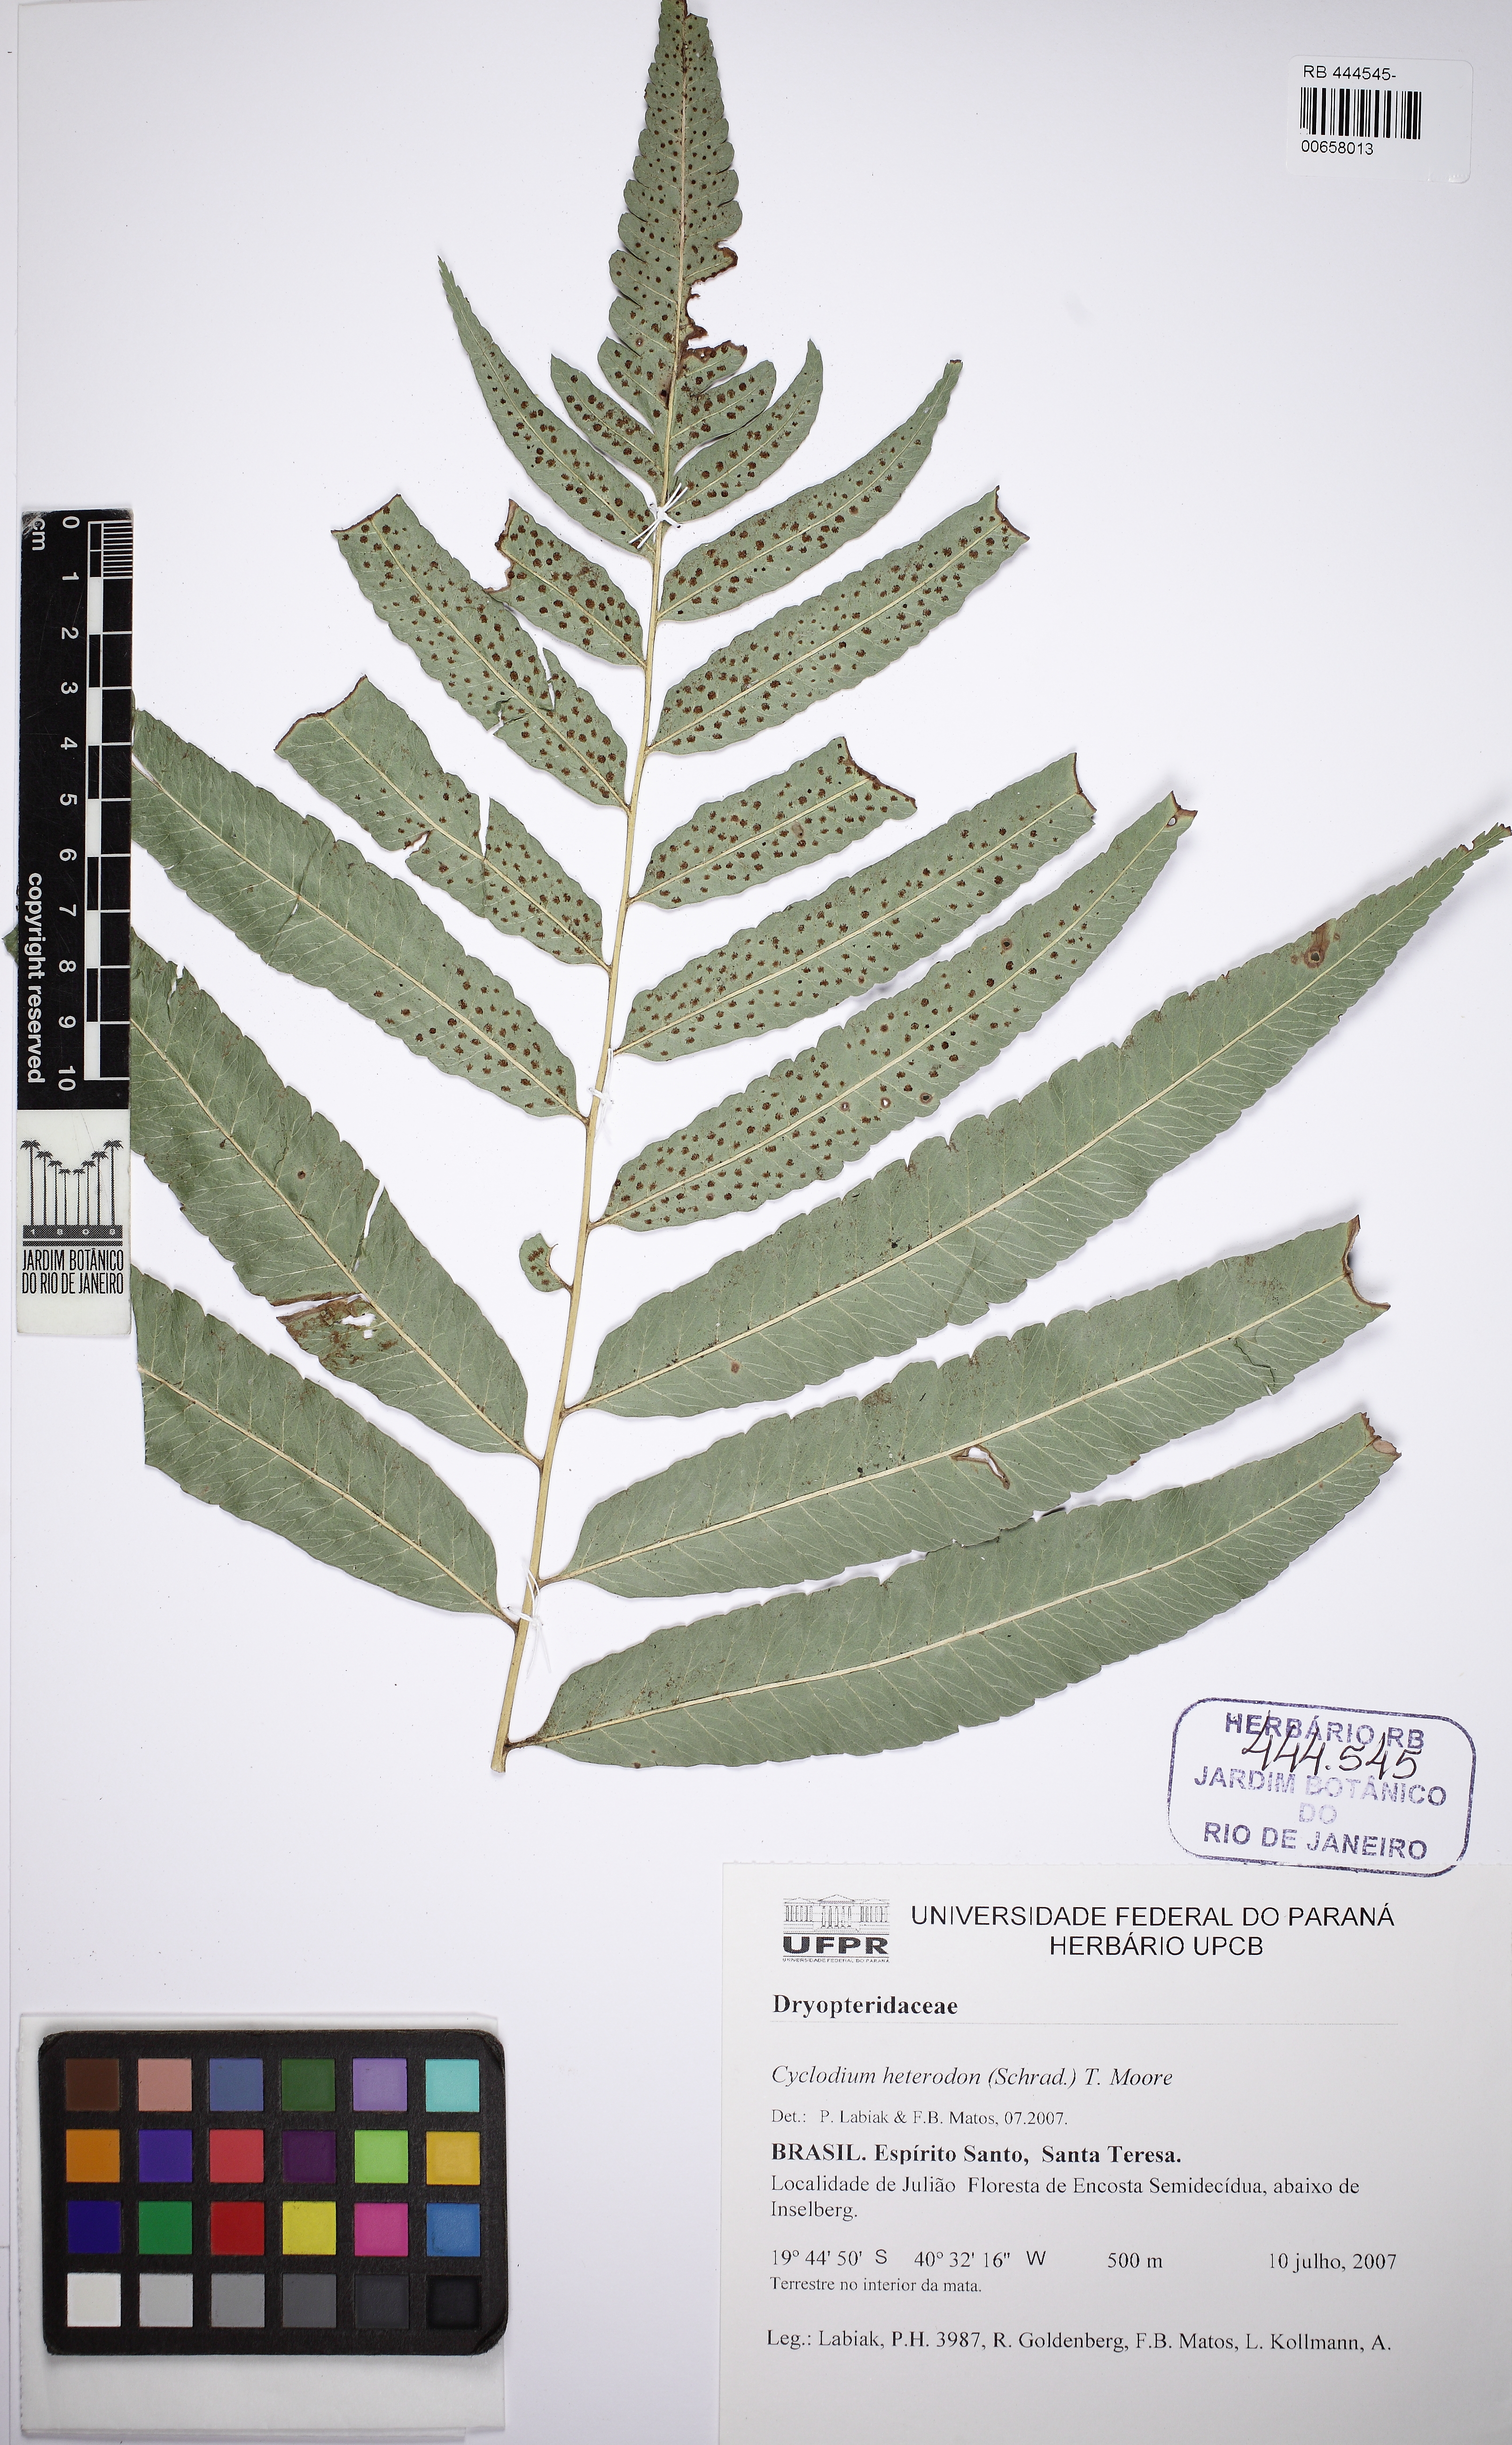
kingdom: Plantae
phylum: Tracheophyta
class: Polypodiopsida
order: Polypodiales
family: Dryopteridaceae
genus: Cyclodium
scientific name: Cyclodium heterodon
